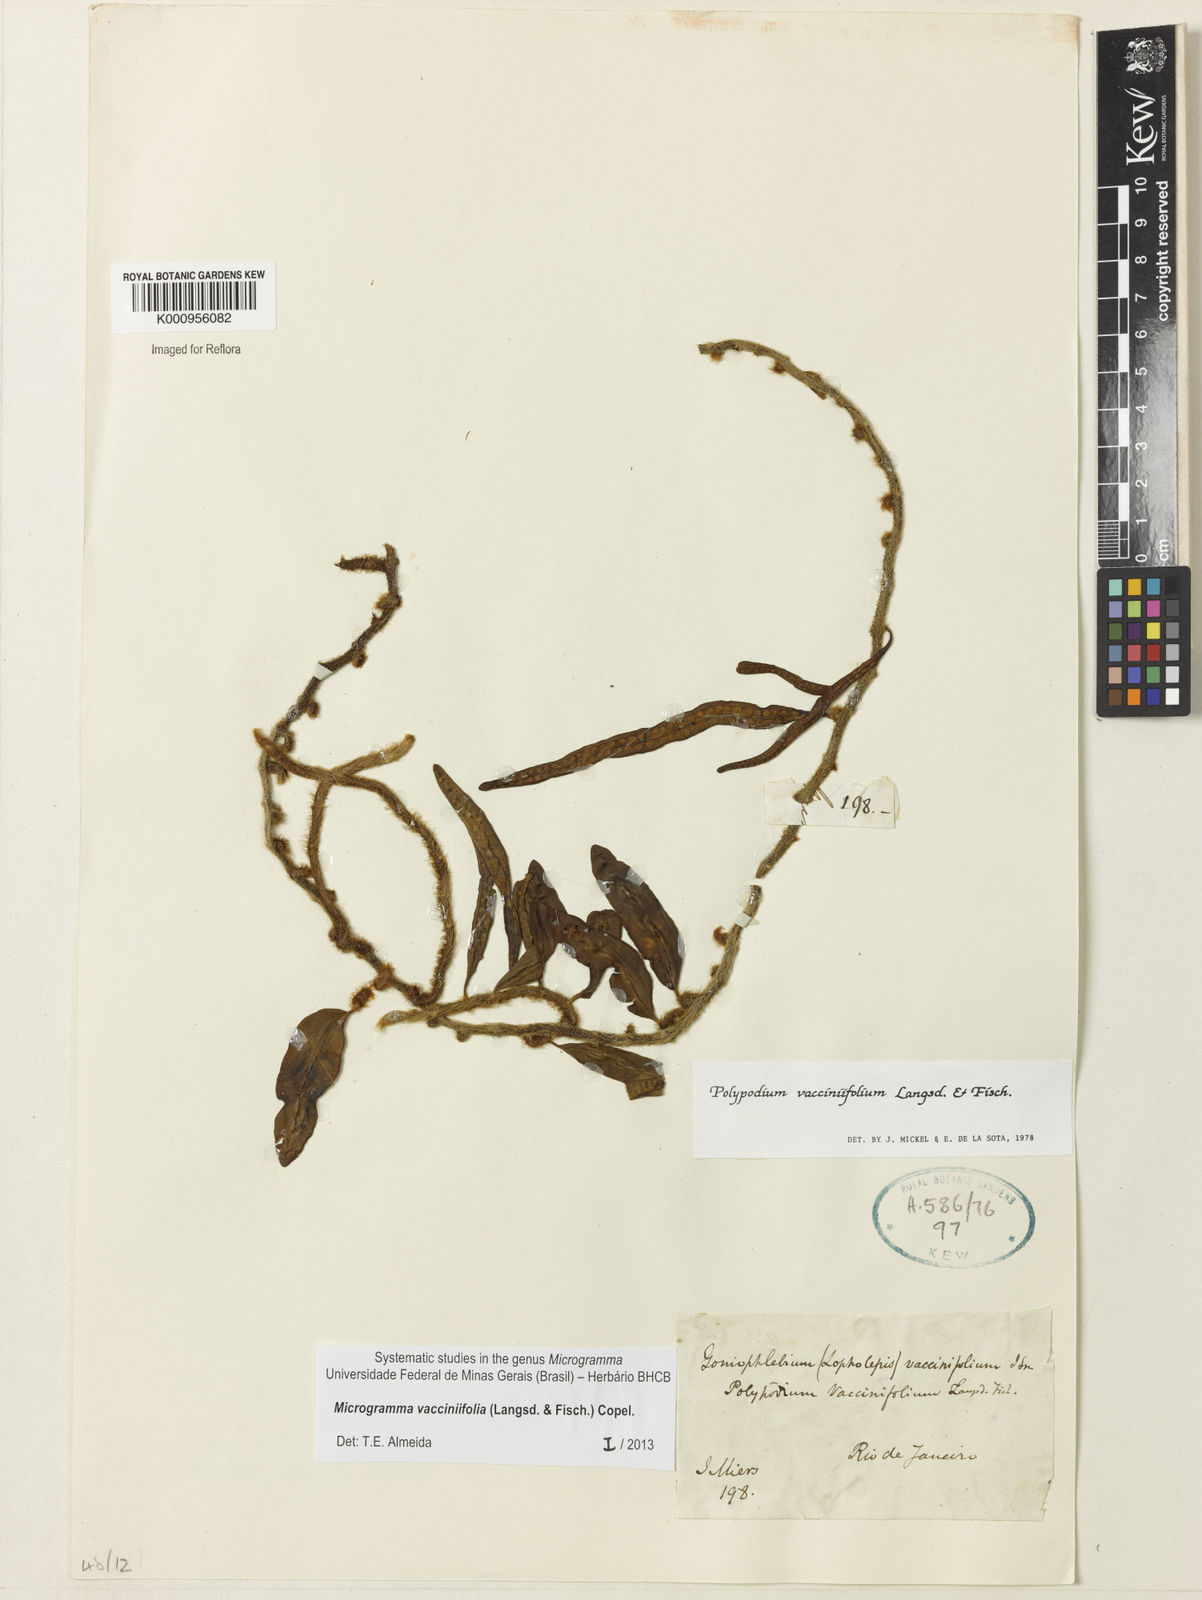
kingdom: Plantae
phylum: Tracheophyta
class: Polypodiopsida
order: Polypodiales
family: Polypodiaceae
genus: Phlebodium
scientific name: Phlebodium
